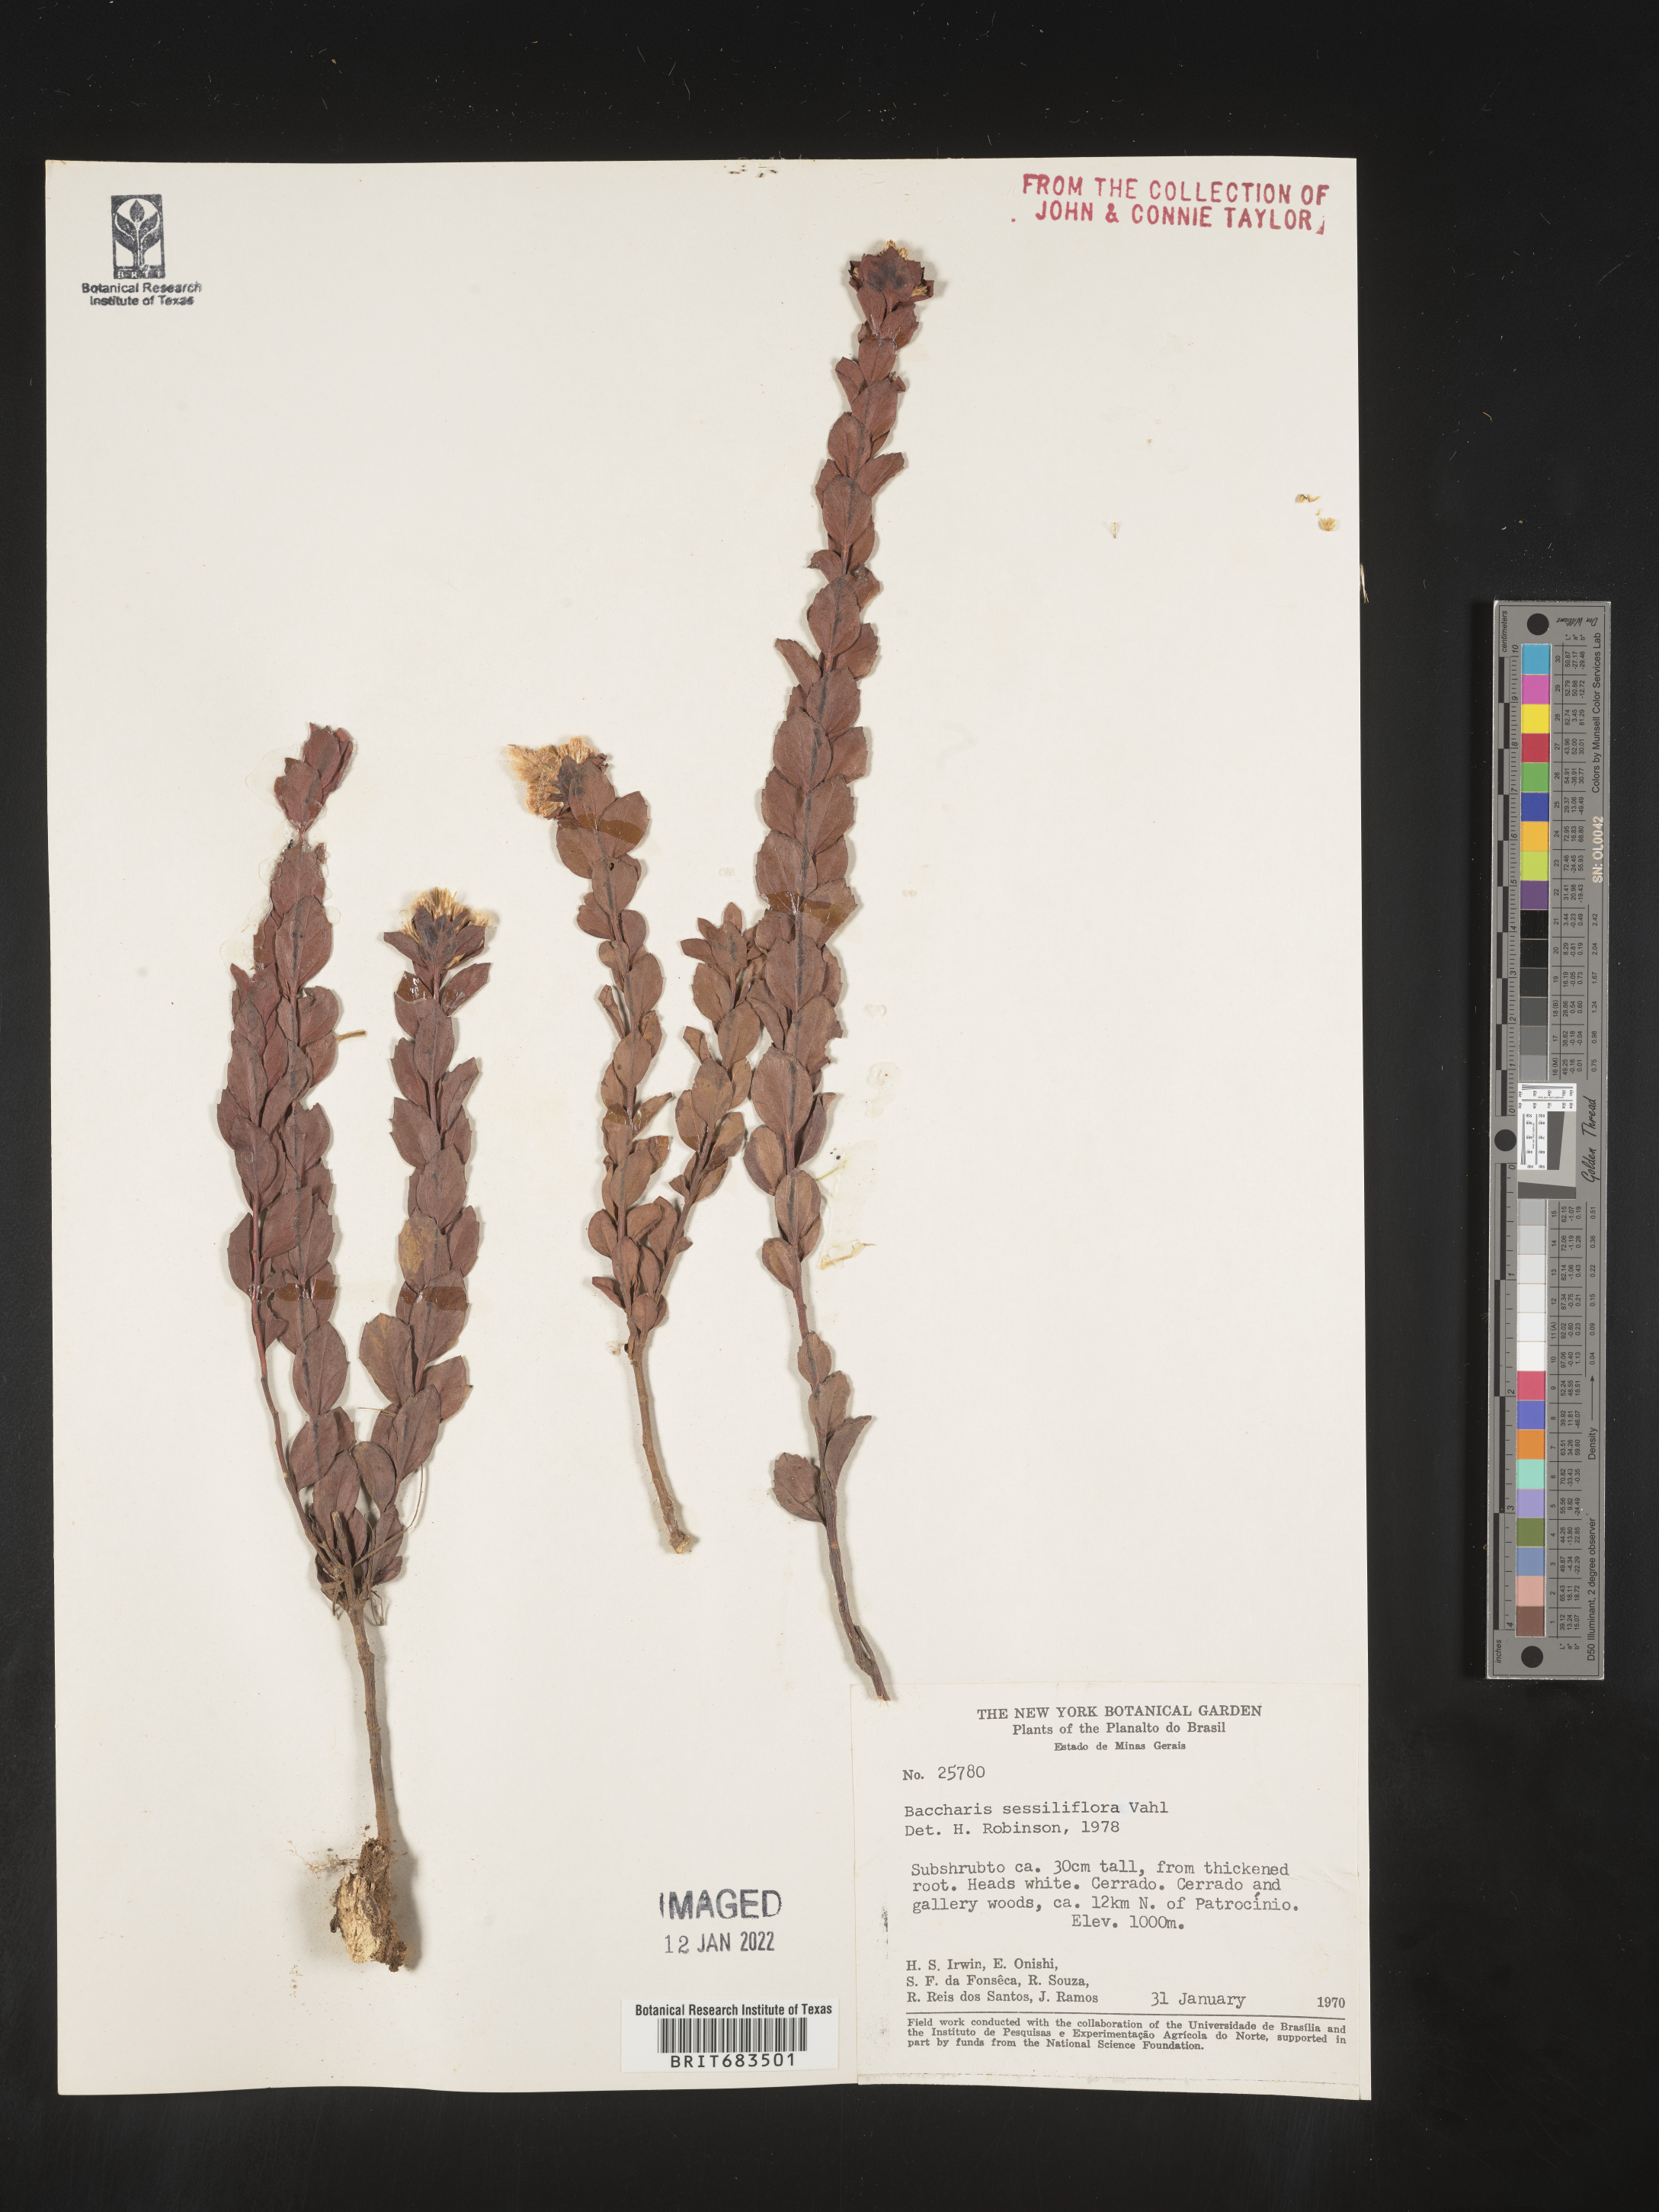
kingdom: Plantae
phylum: Tracheophyta
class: Magnoliopsida
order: Asterales
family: Asteraceae
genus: Baccharis
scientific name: Baccharis
